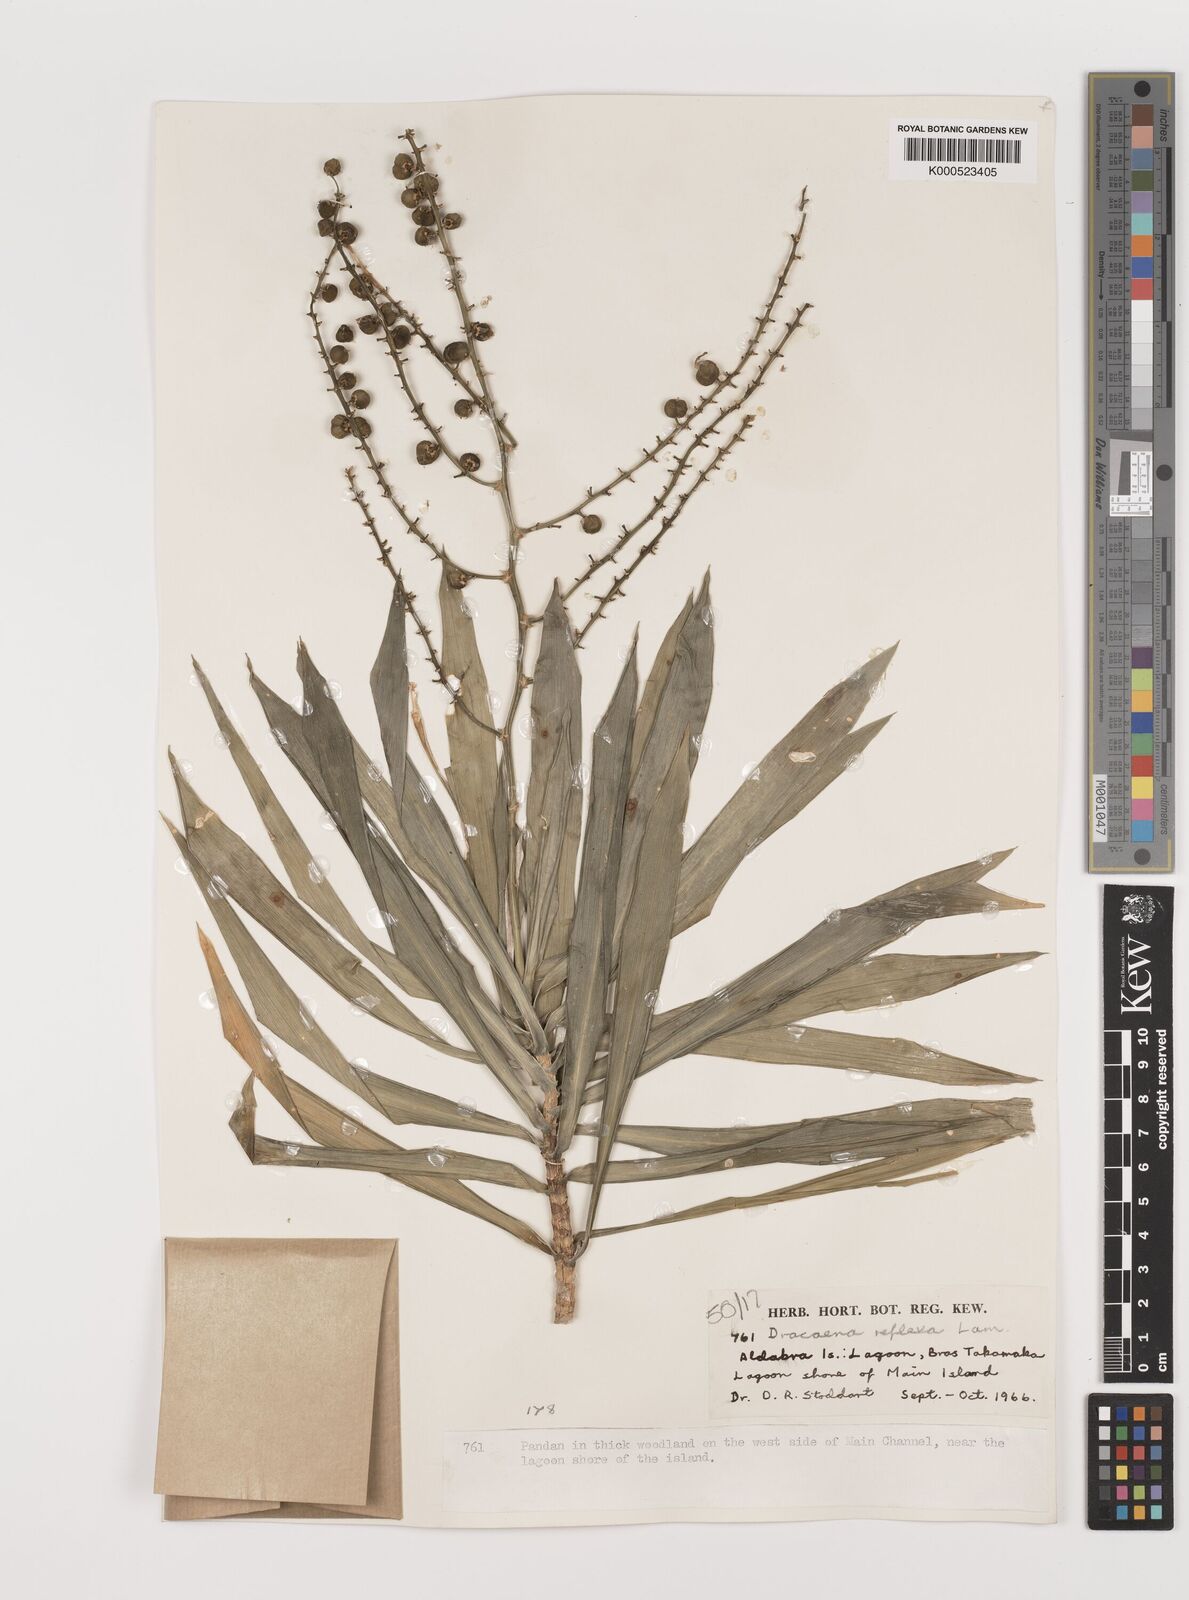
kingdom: Plantae
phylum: Tracheophyta
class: Liliopsida
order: Asparagales
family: Asparagaceae
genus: Dracaena
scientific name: Dracaena reflexa
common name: Song-of-india
